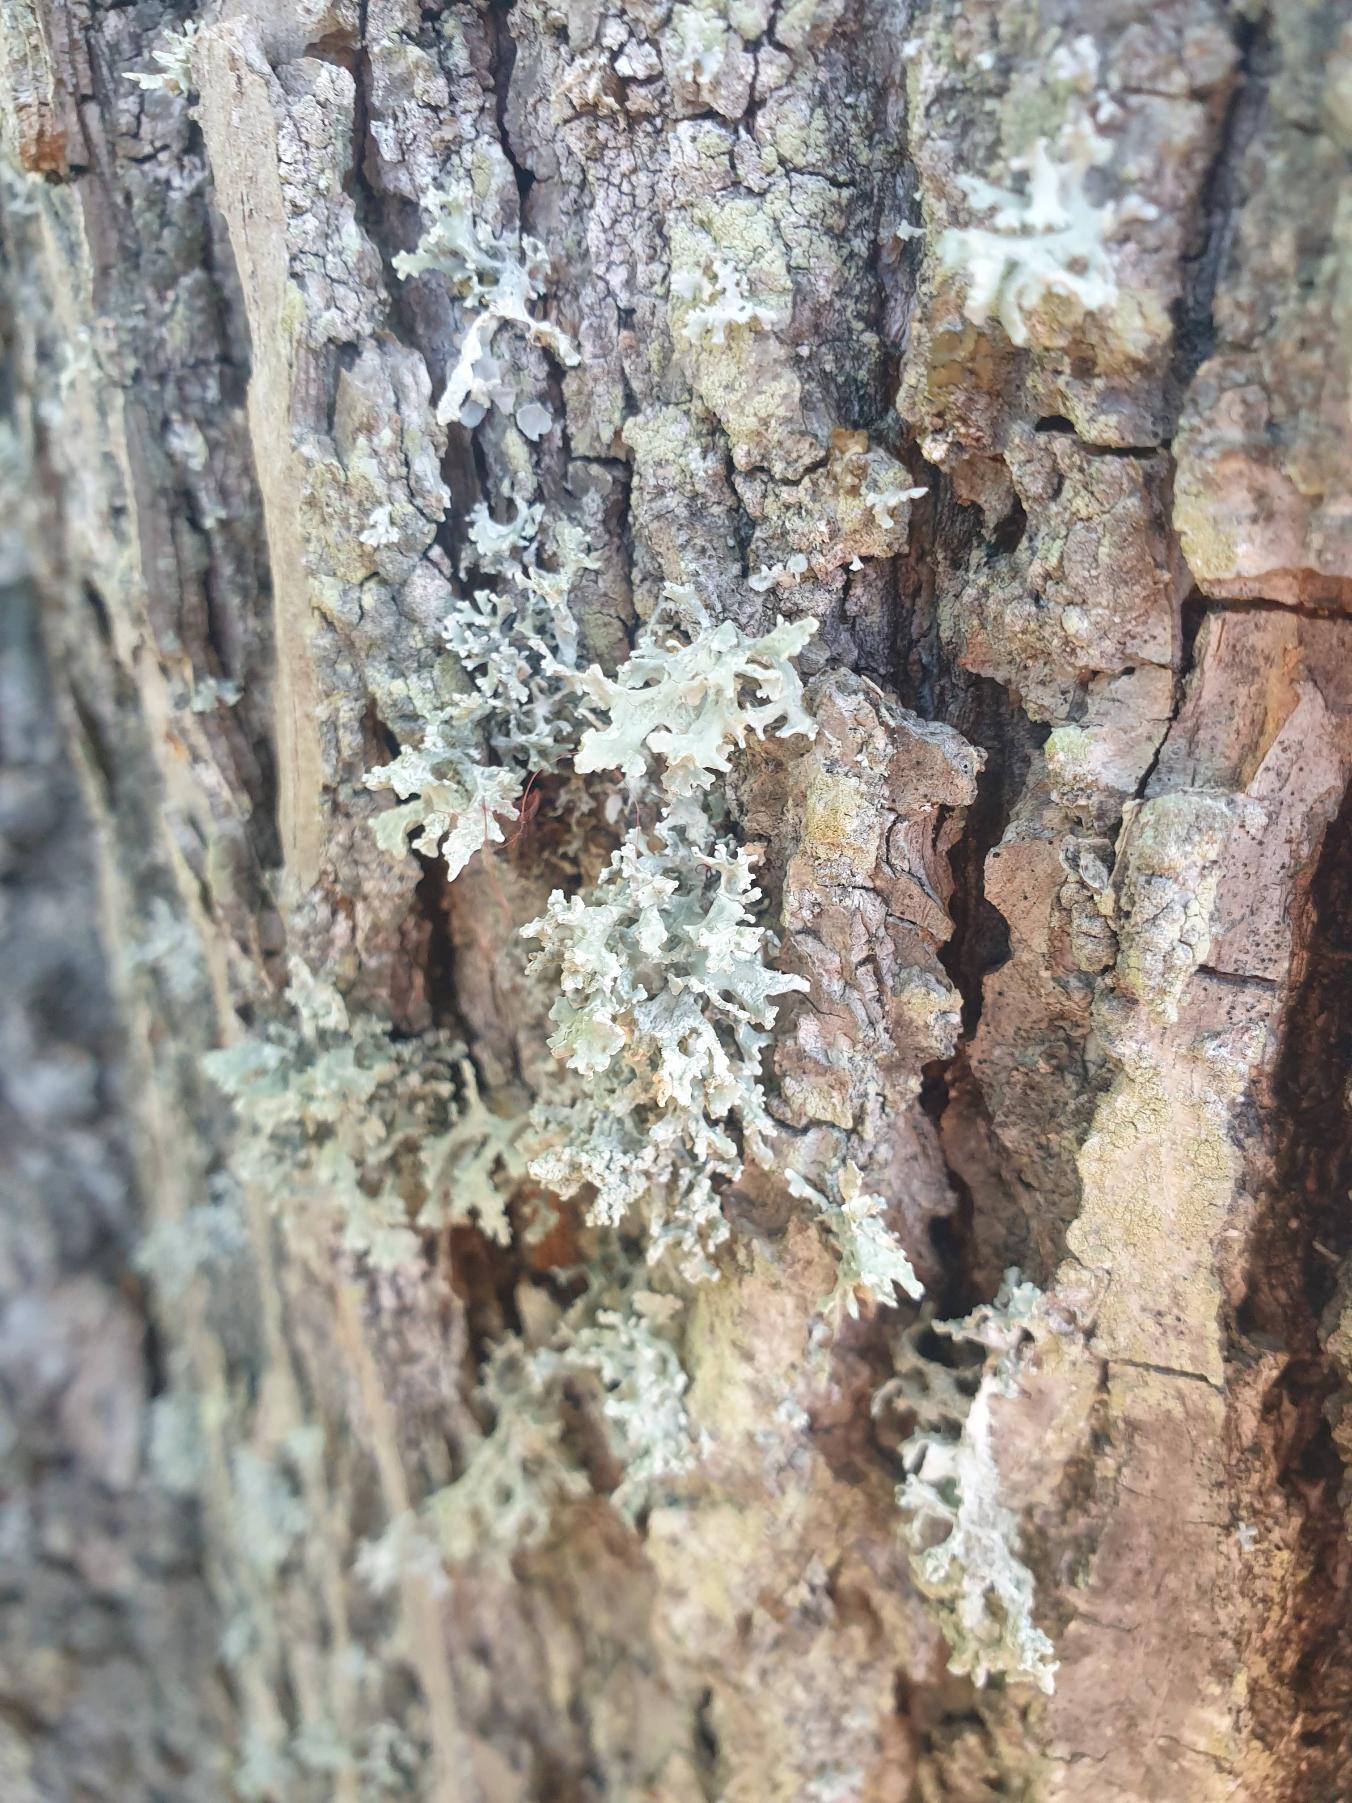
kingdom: Fungi
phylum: Ascomycota
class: Lecanoromycetes
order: Lecanorales
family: Parmeliaceae
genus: Evernia
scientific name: Evernia prunastri
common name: Almindelig slåenlav
